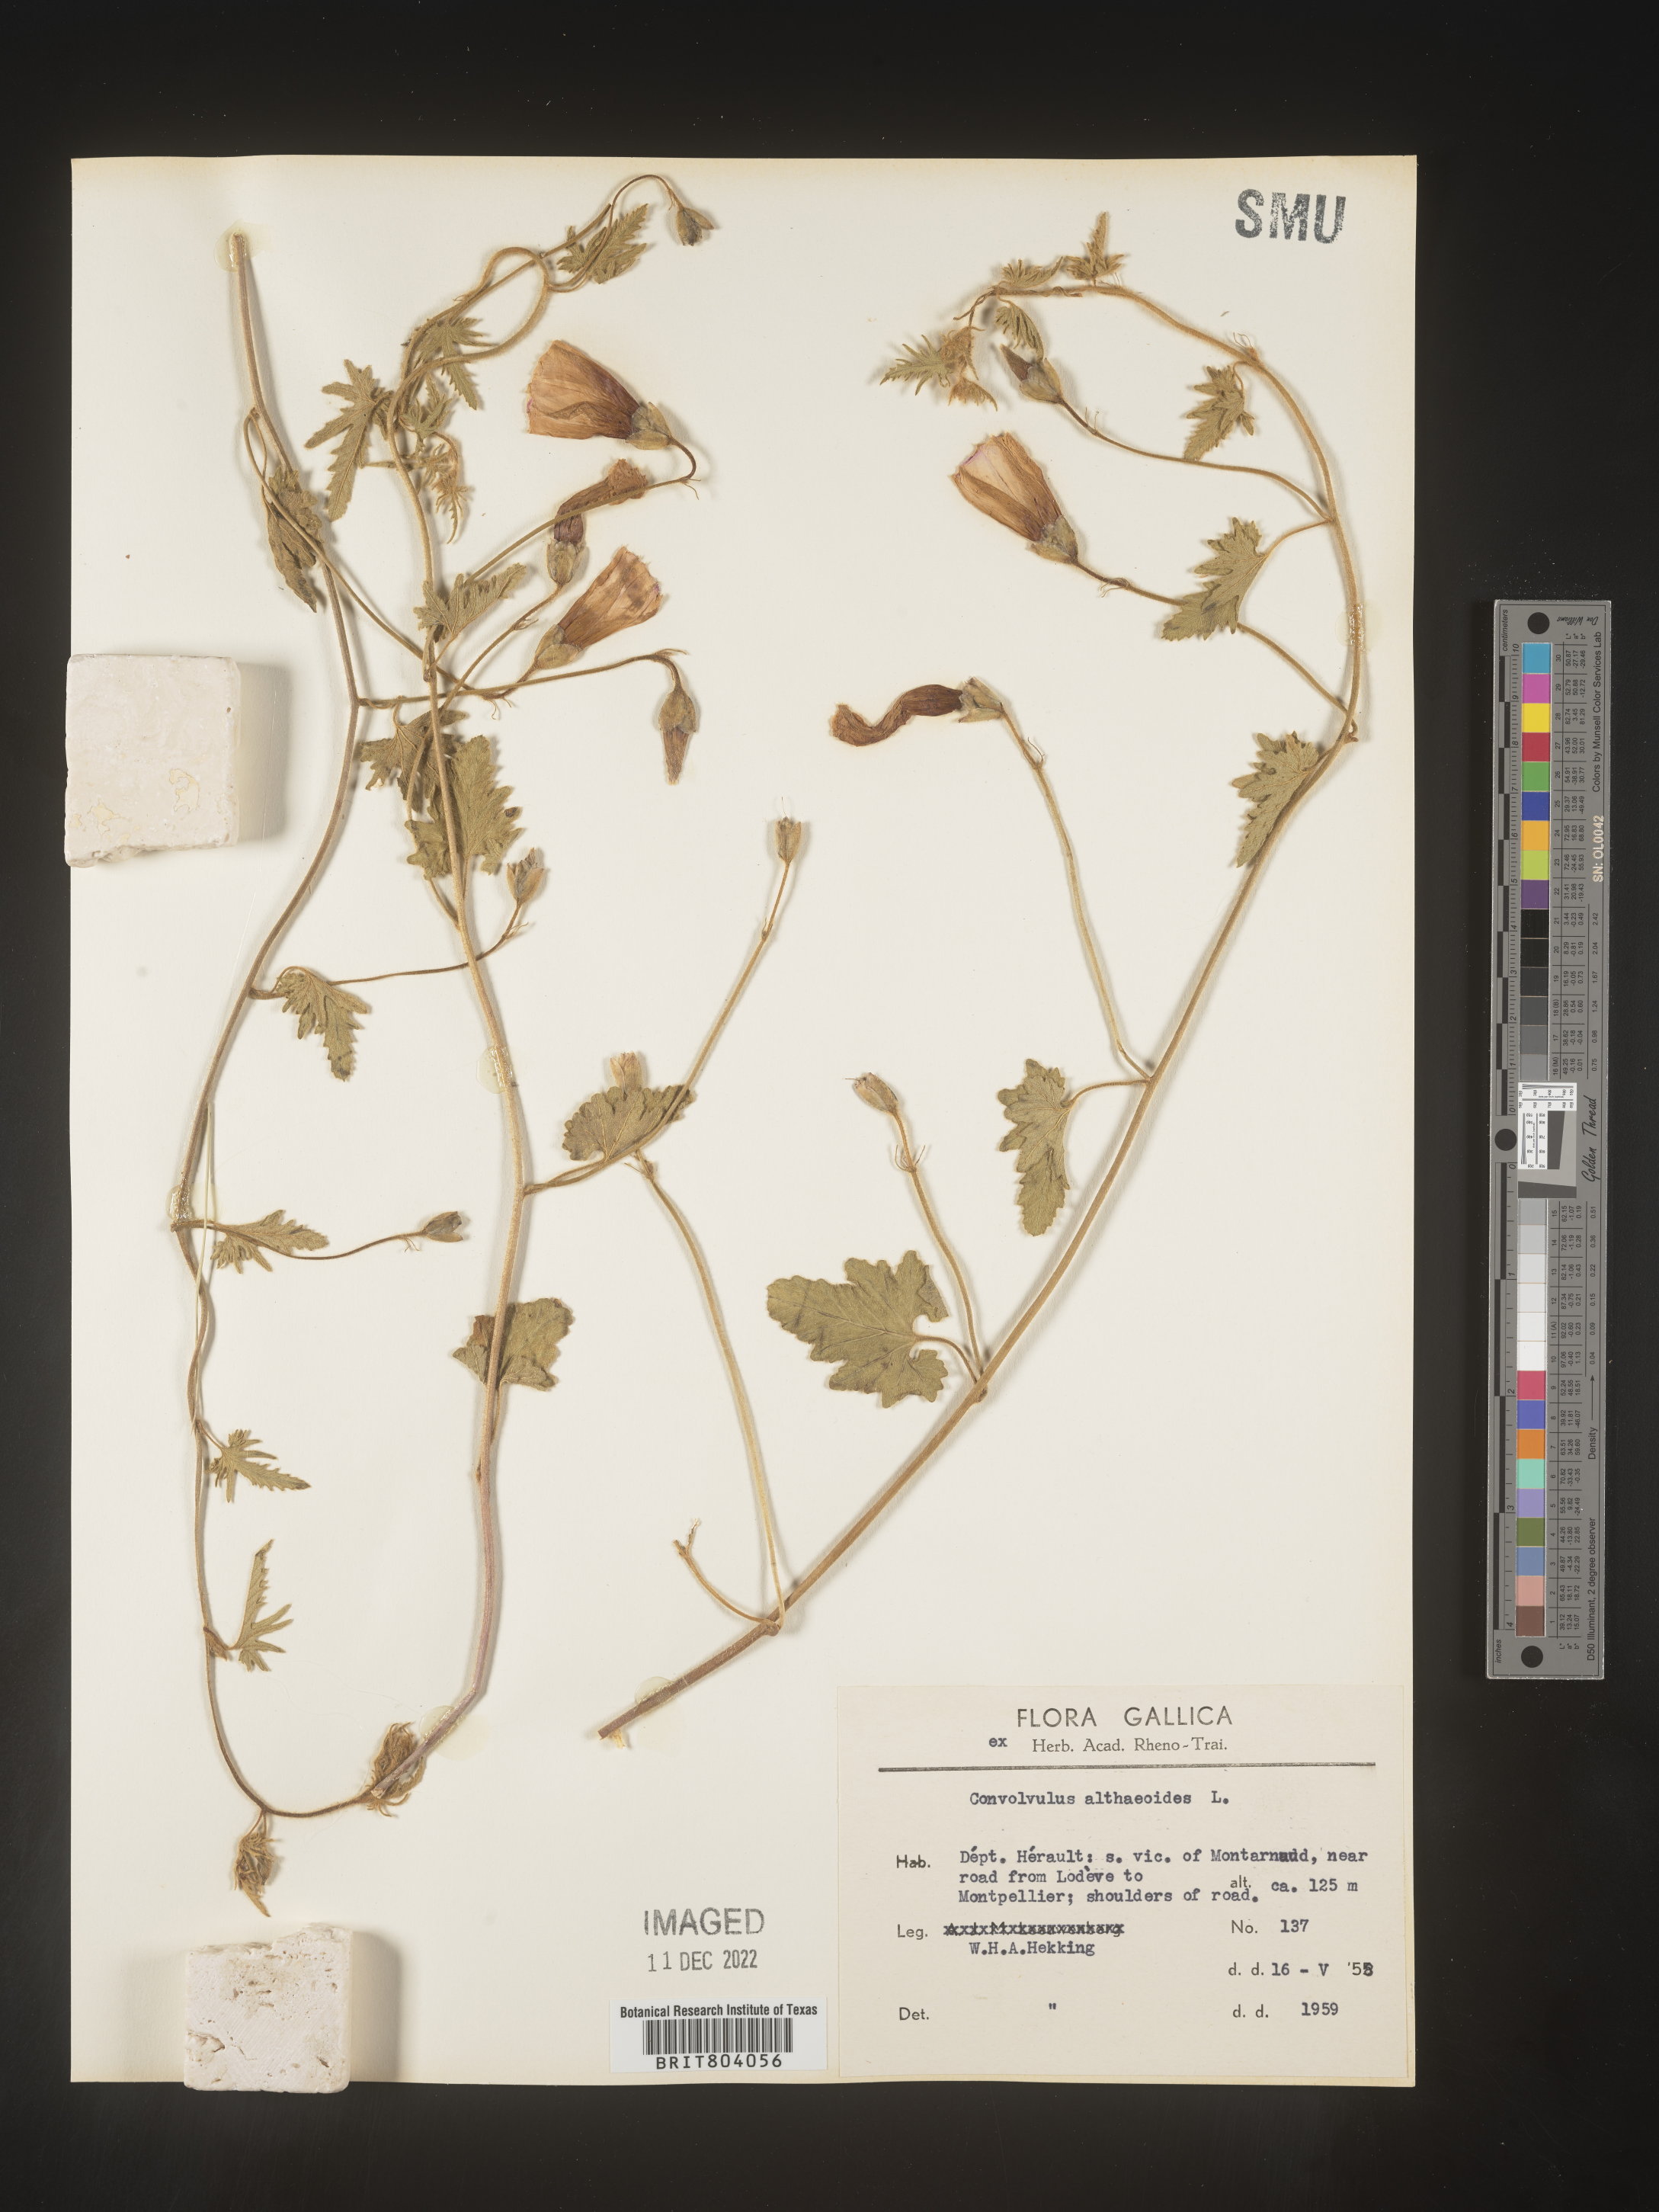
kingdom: Plantae
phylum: Tracheophyta
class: Magnoliopsida
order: Solanales
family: Convolvulaceae
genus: Convolvulus
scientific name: Convolvulus
